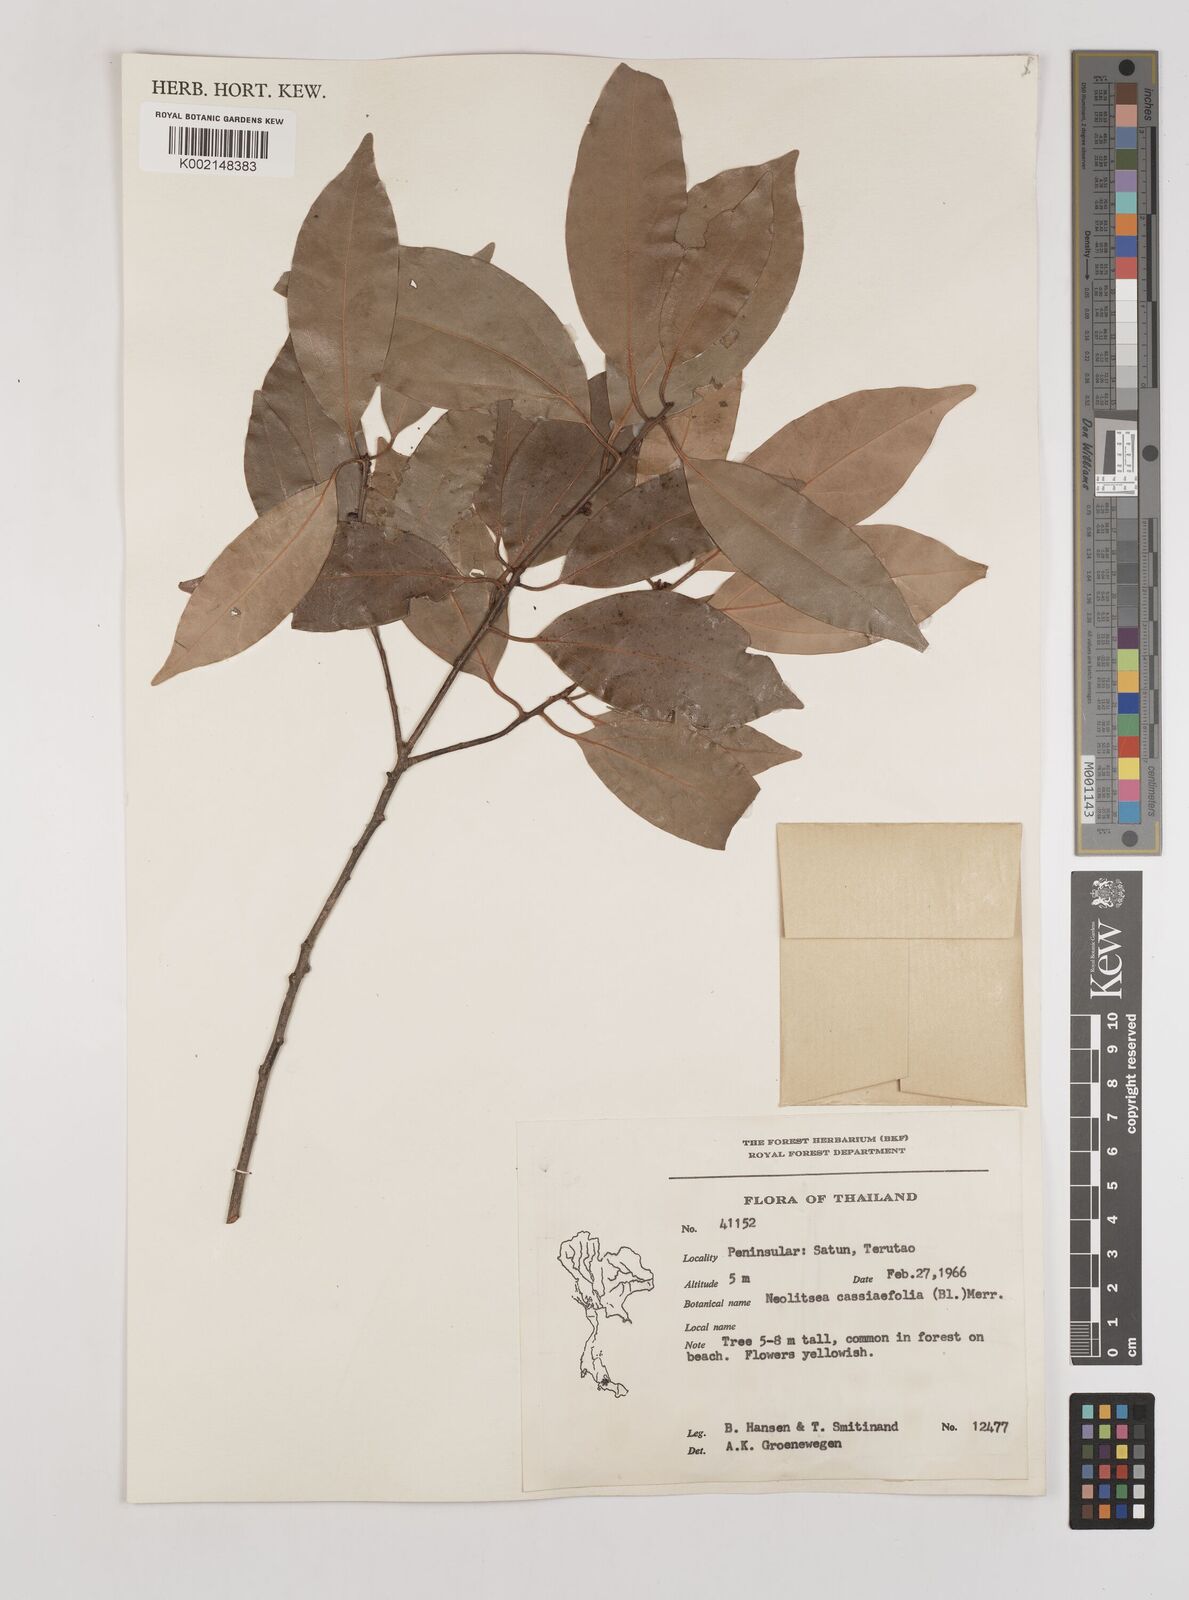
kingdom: Plantae
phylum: Tracheophyta
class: Magnoliopsida
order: Laurales
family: Lauraceae
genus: Neolitsea
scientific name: Neolitsea cassiifolia
